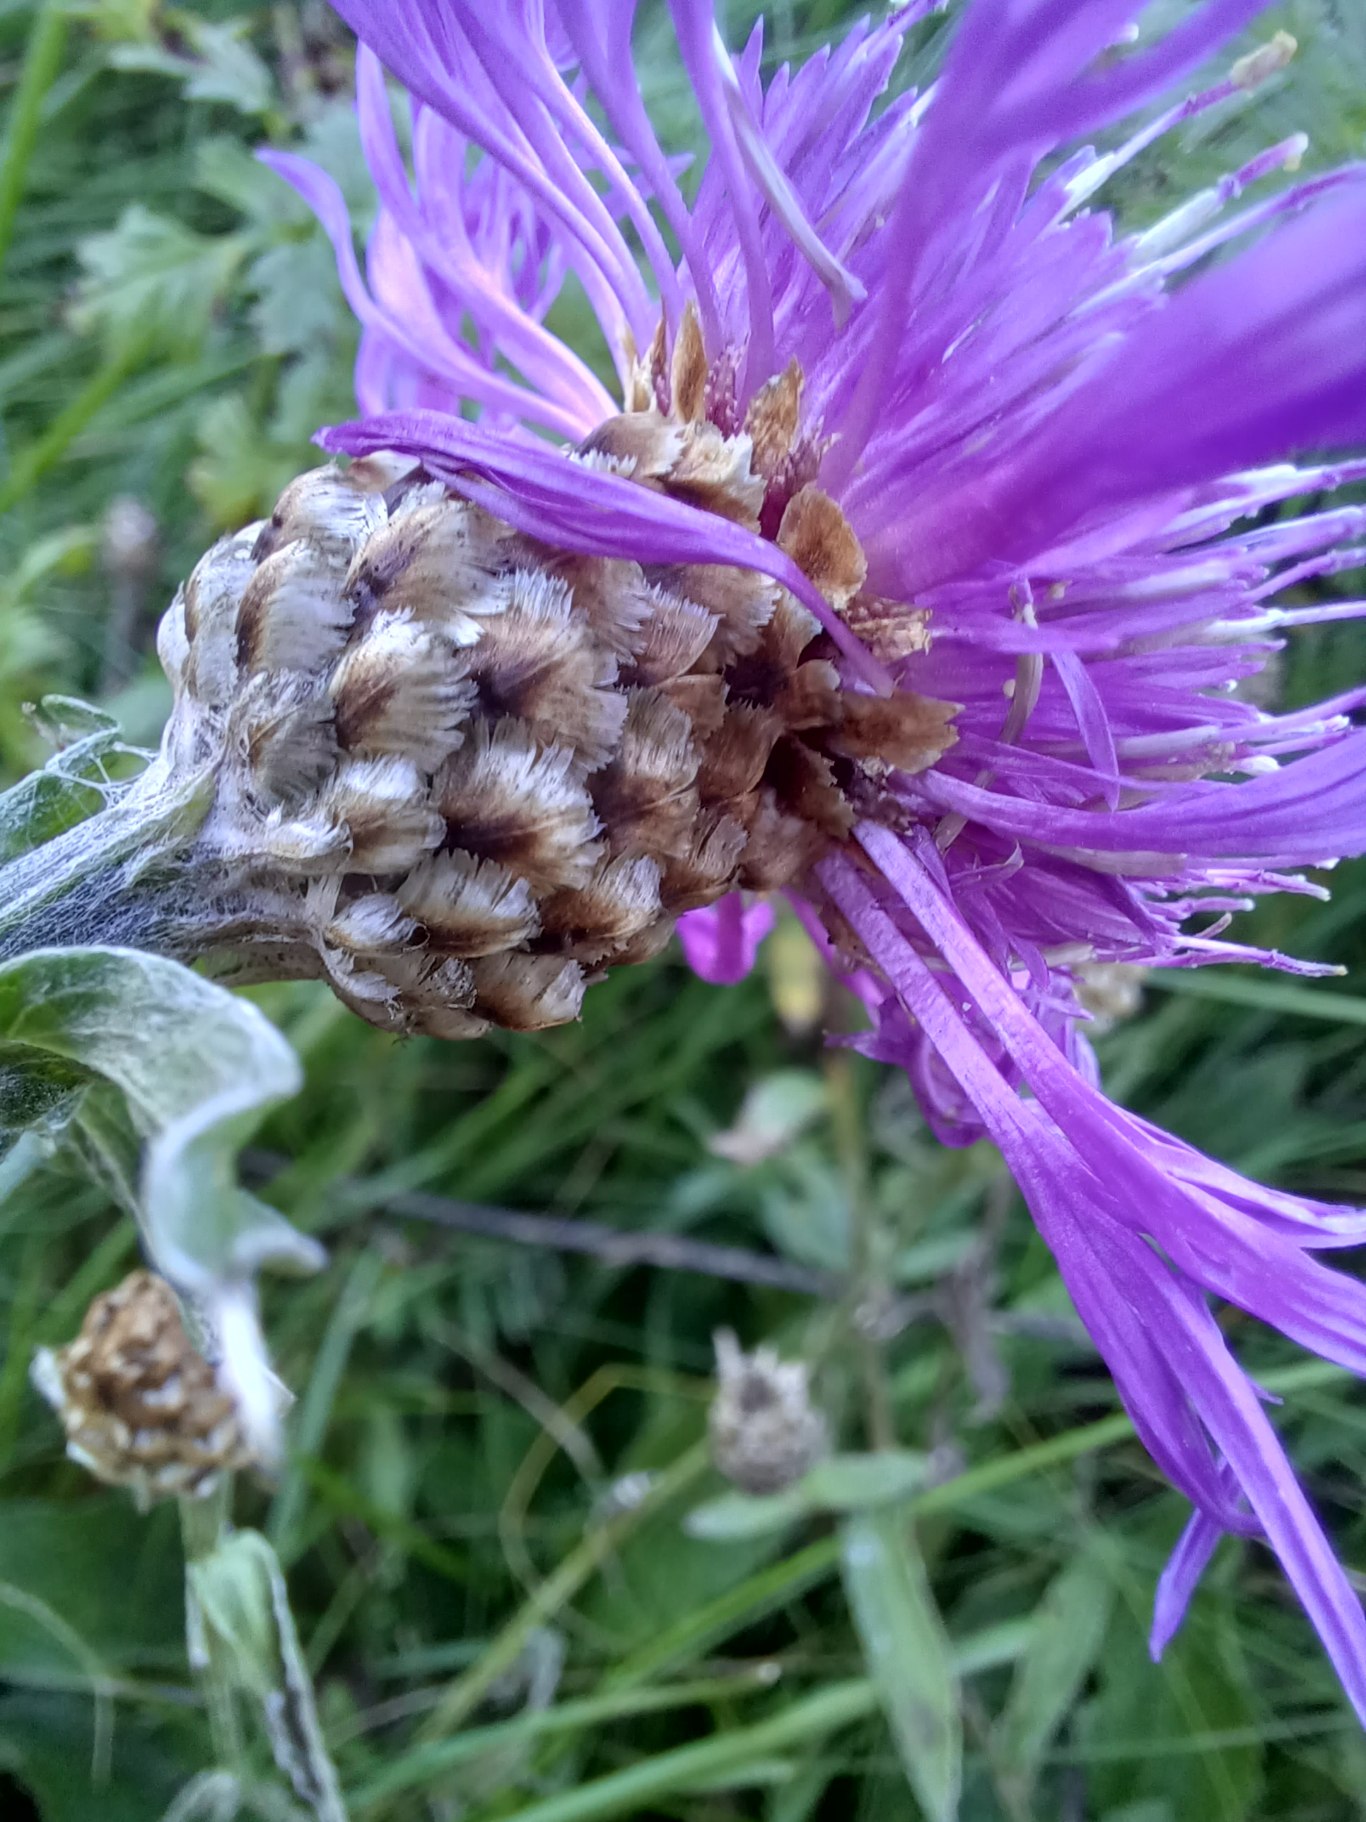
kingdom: Plantae
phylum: Tracheophyta
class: Magnoliopsida
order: Asterales
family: Asteraceae
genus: Centaurea
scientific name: Centaurea jacea
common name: Almindelig knopurt
